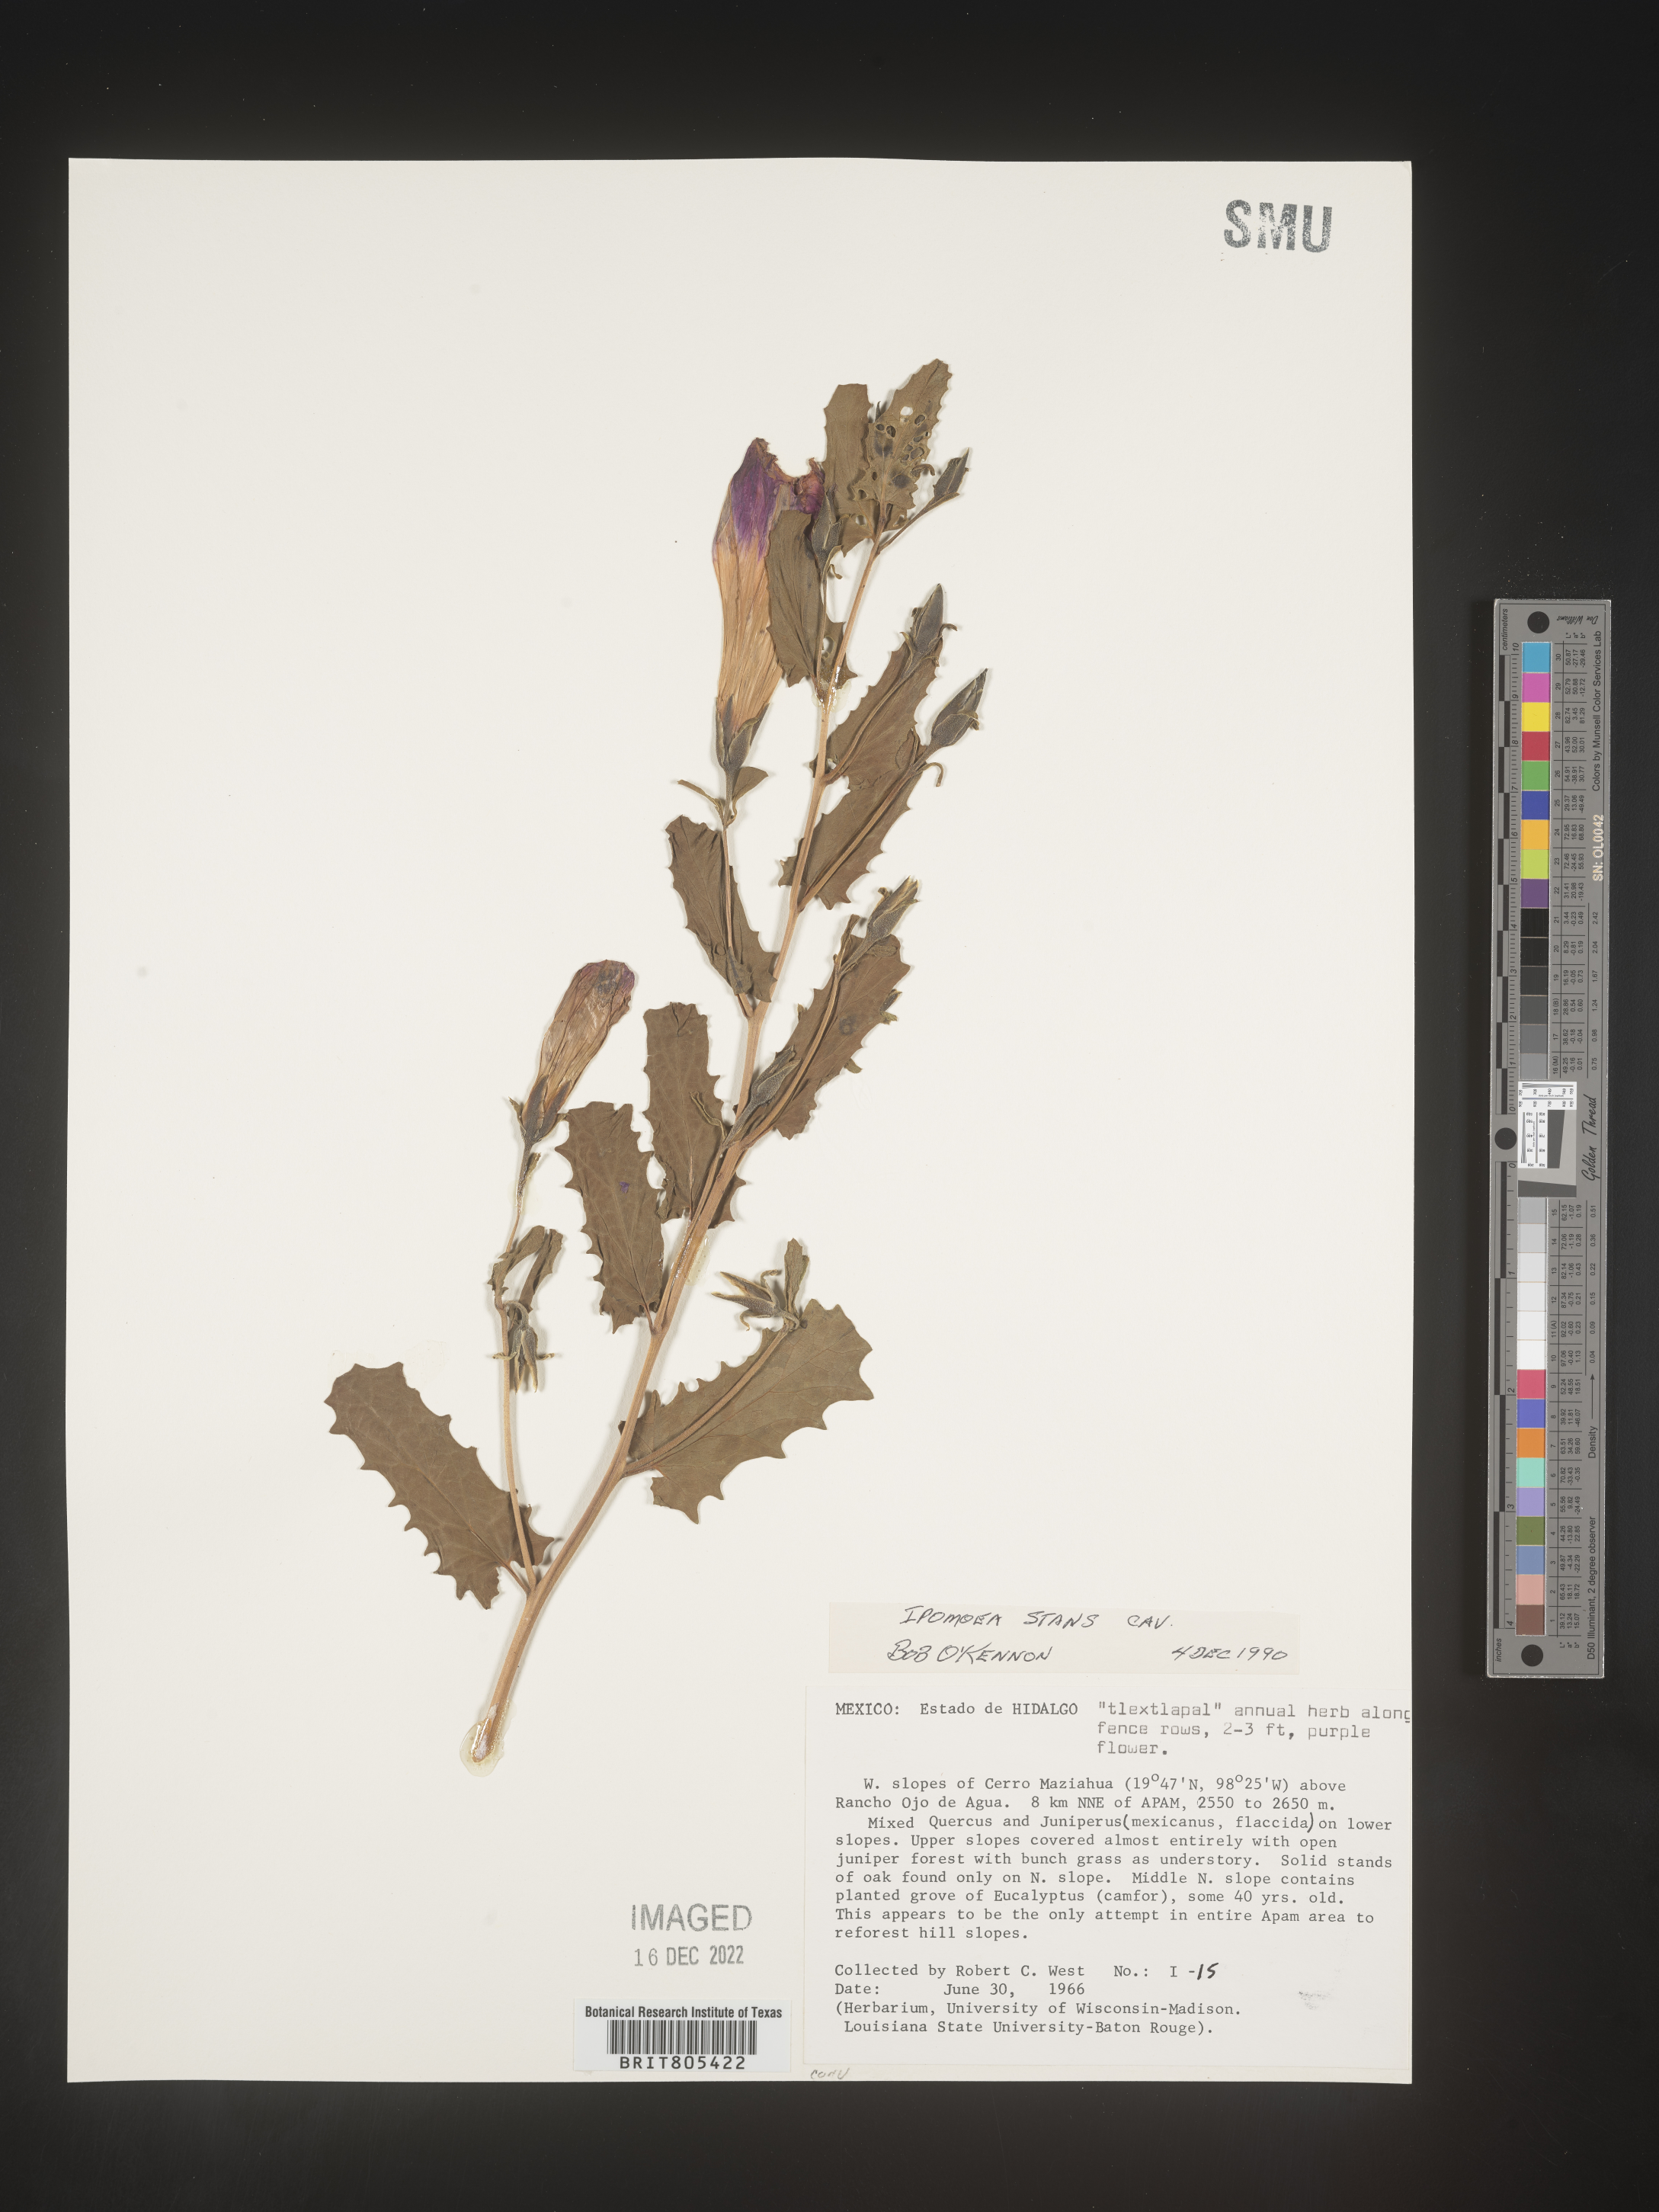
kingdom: Plantae
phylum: Tracheophyta
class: Magnoliopsida
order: Solanales
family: Convolvulaceae
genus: Ipomoea
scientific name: Ipomoea
